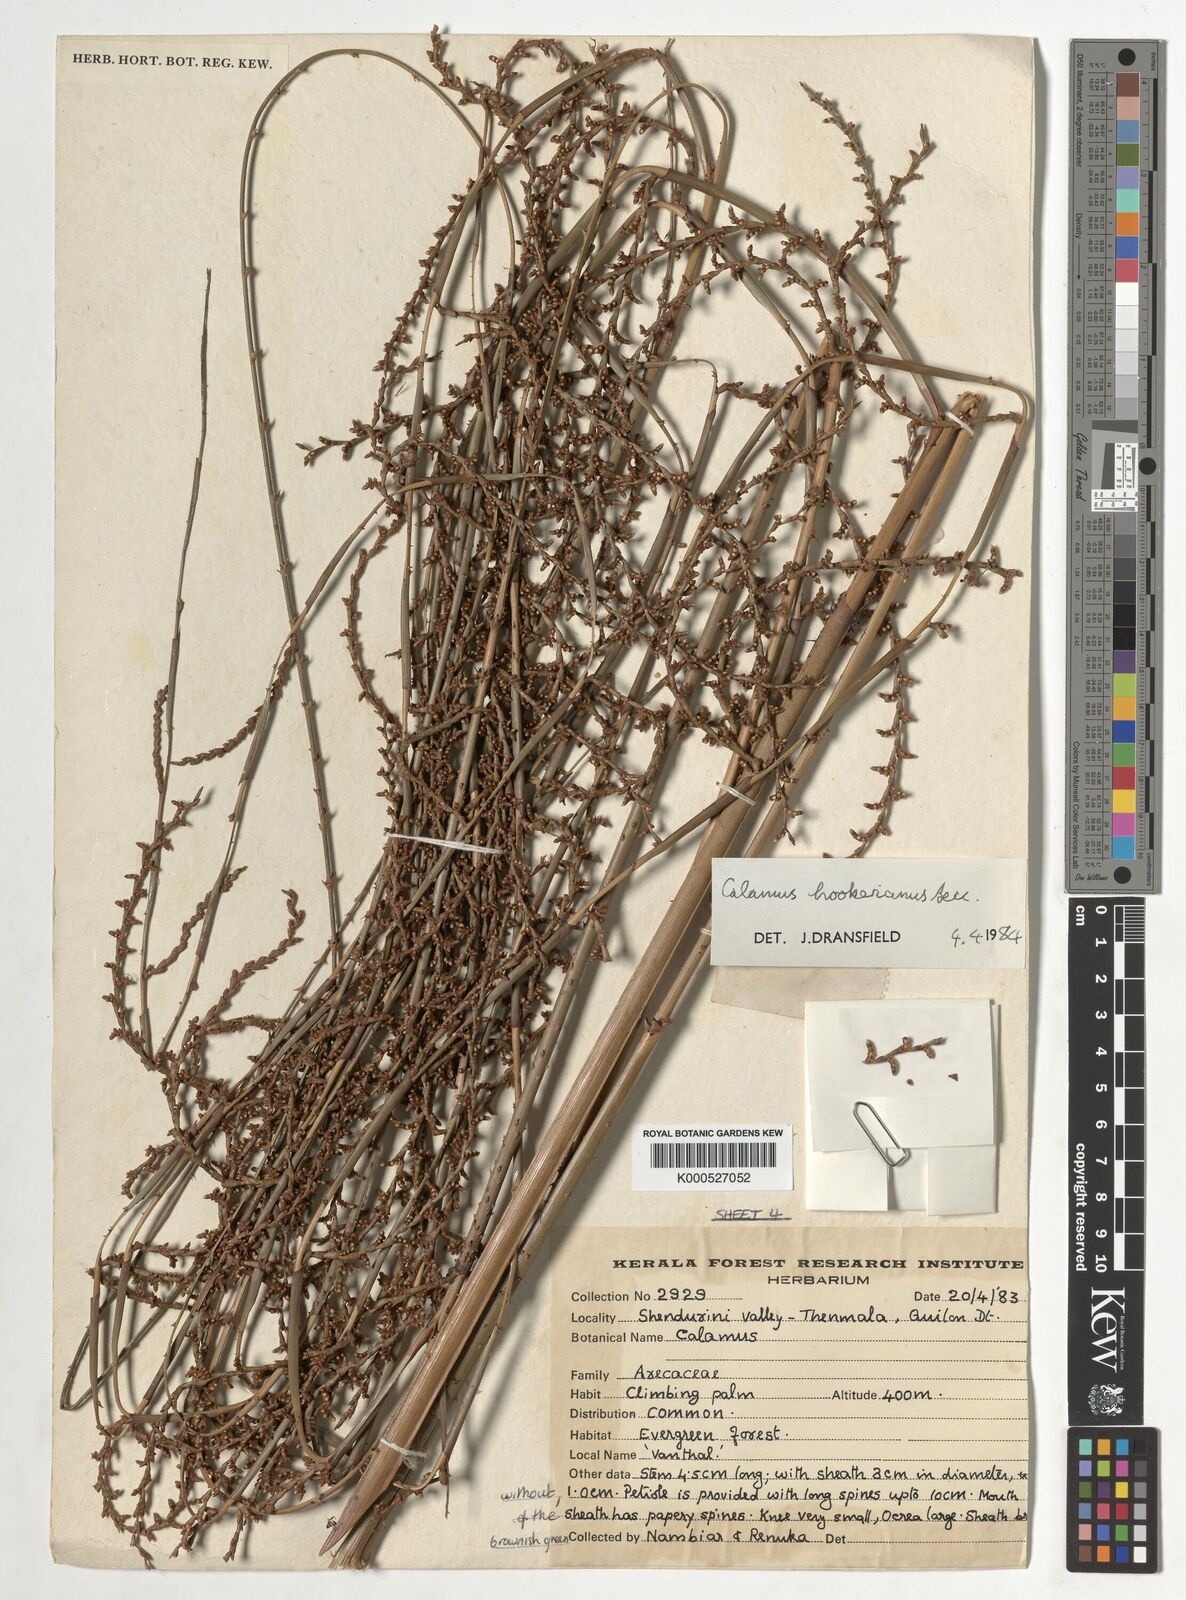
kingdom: Plantae
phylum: Tracheophyta
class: Liliopsida
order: Arecales
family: Arecaceae
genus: Calamus
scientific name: Calamus hookerianus
